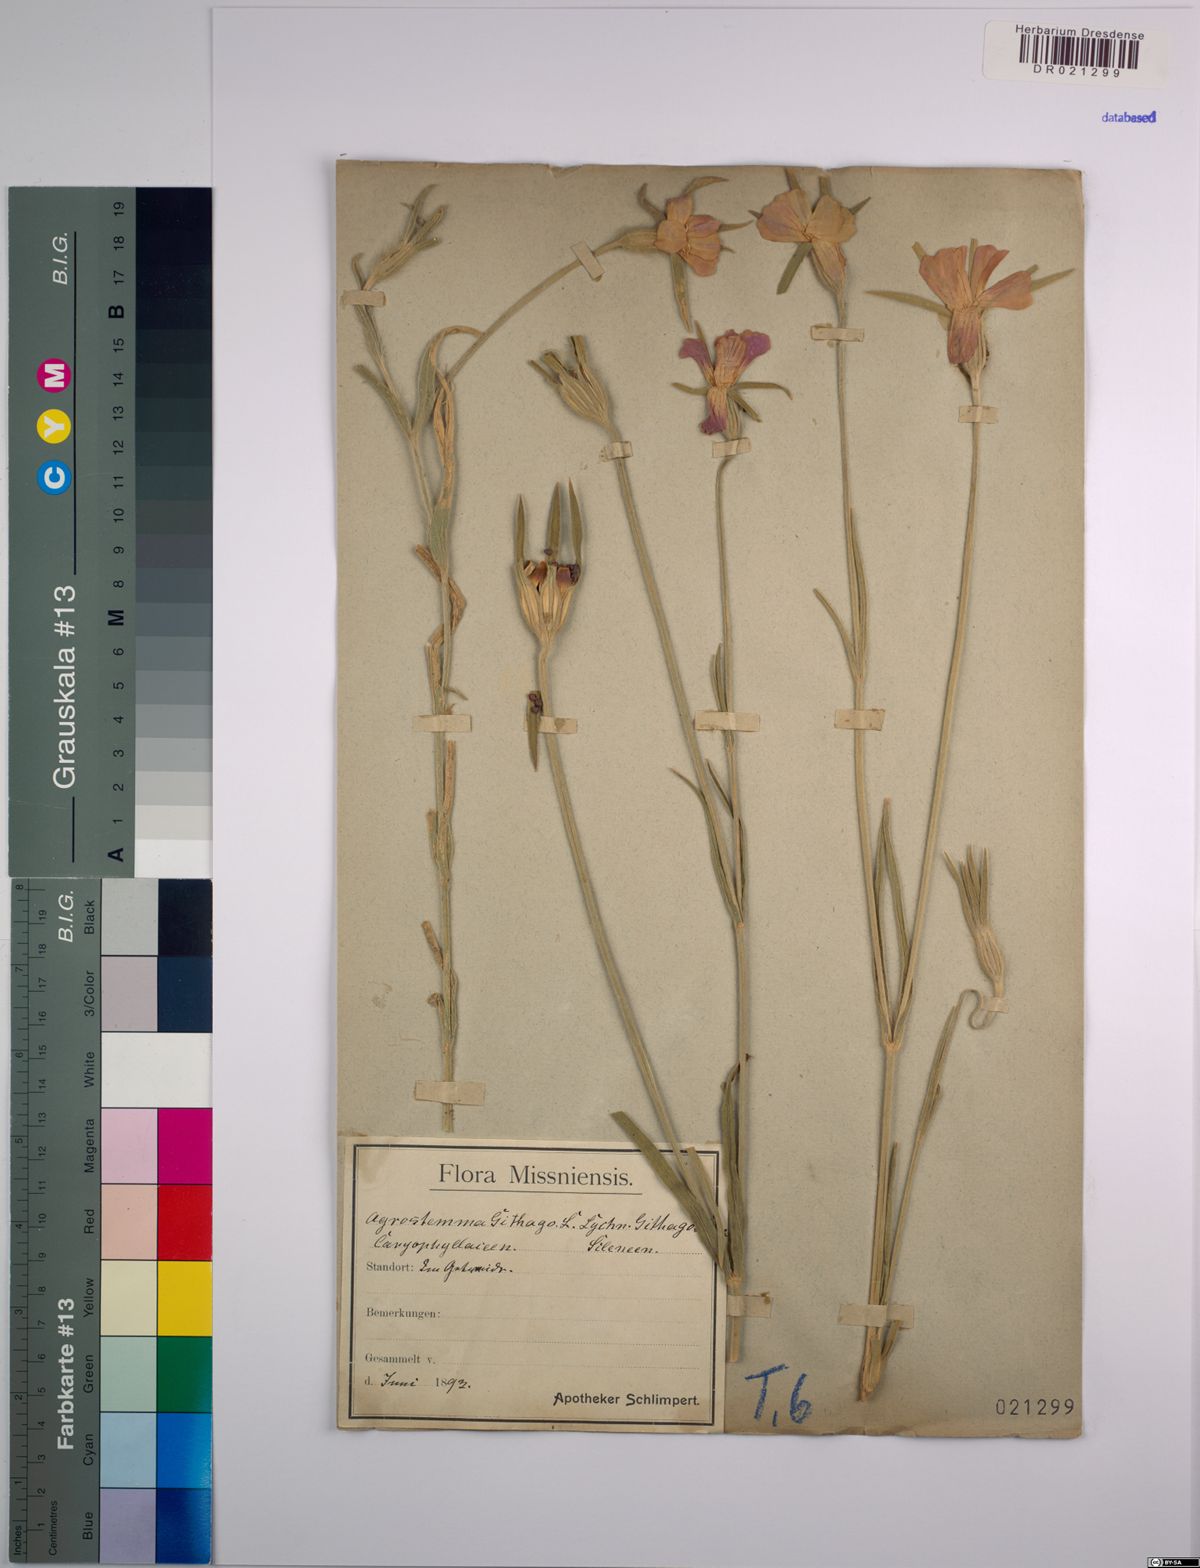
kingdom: Plantae
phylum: Tracheophyta
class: Magnoliopsida
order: Caryophyllales
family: Caryophyllaceae
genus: Agrostemma
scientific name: Agrostemma githago
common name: Common corncockle
